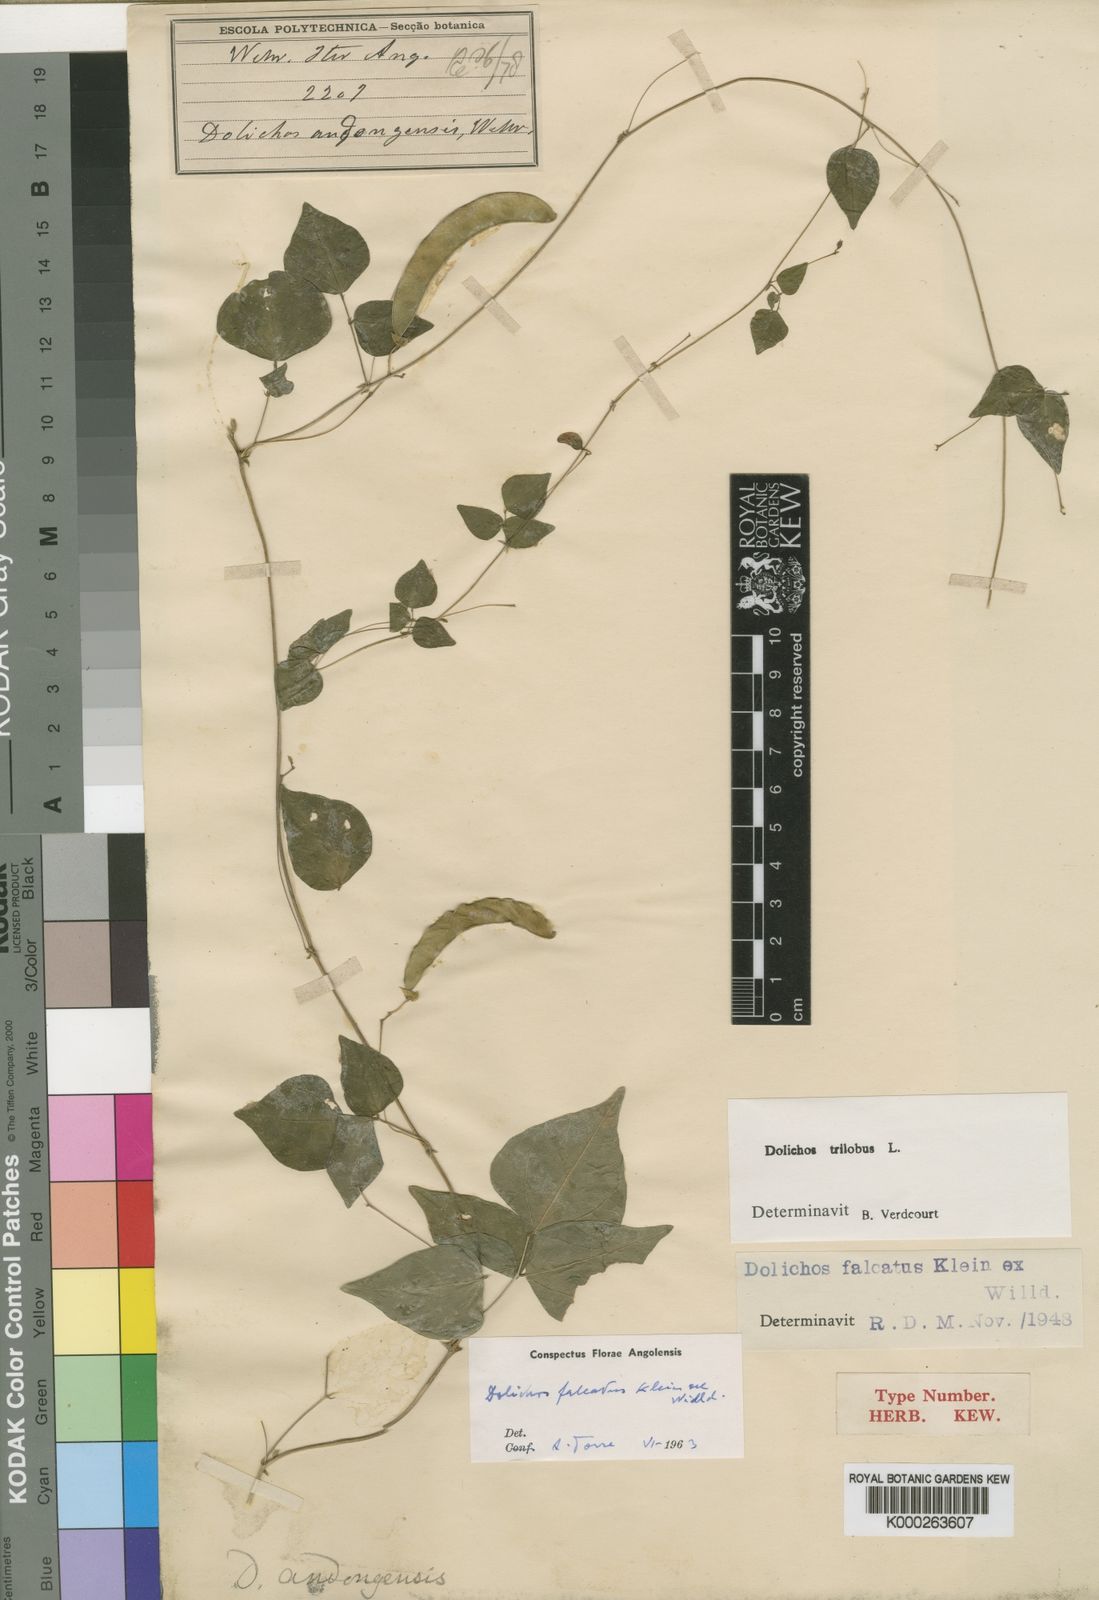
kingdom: Plantae
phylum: Tracheophyta
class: Magnoliopsida
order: Fabales
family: Fabaceae
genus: Dolichos
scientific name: Dolichos trilobus
